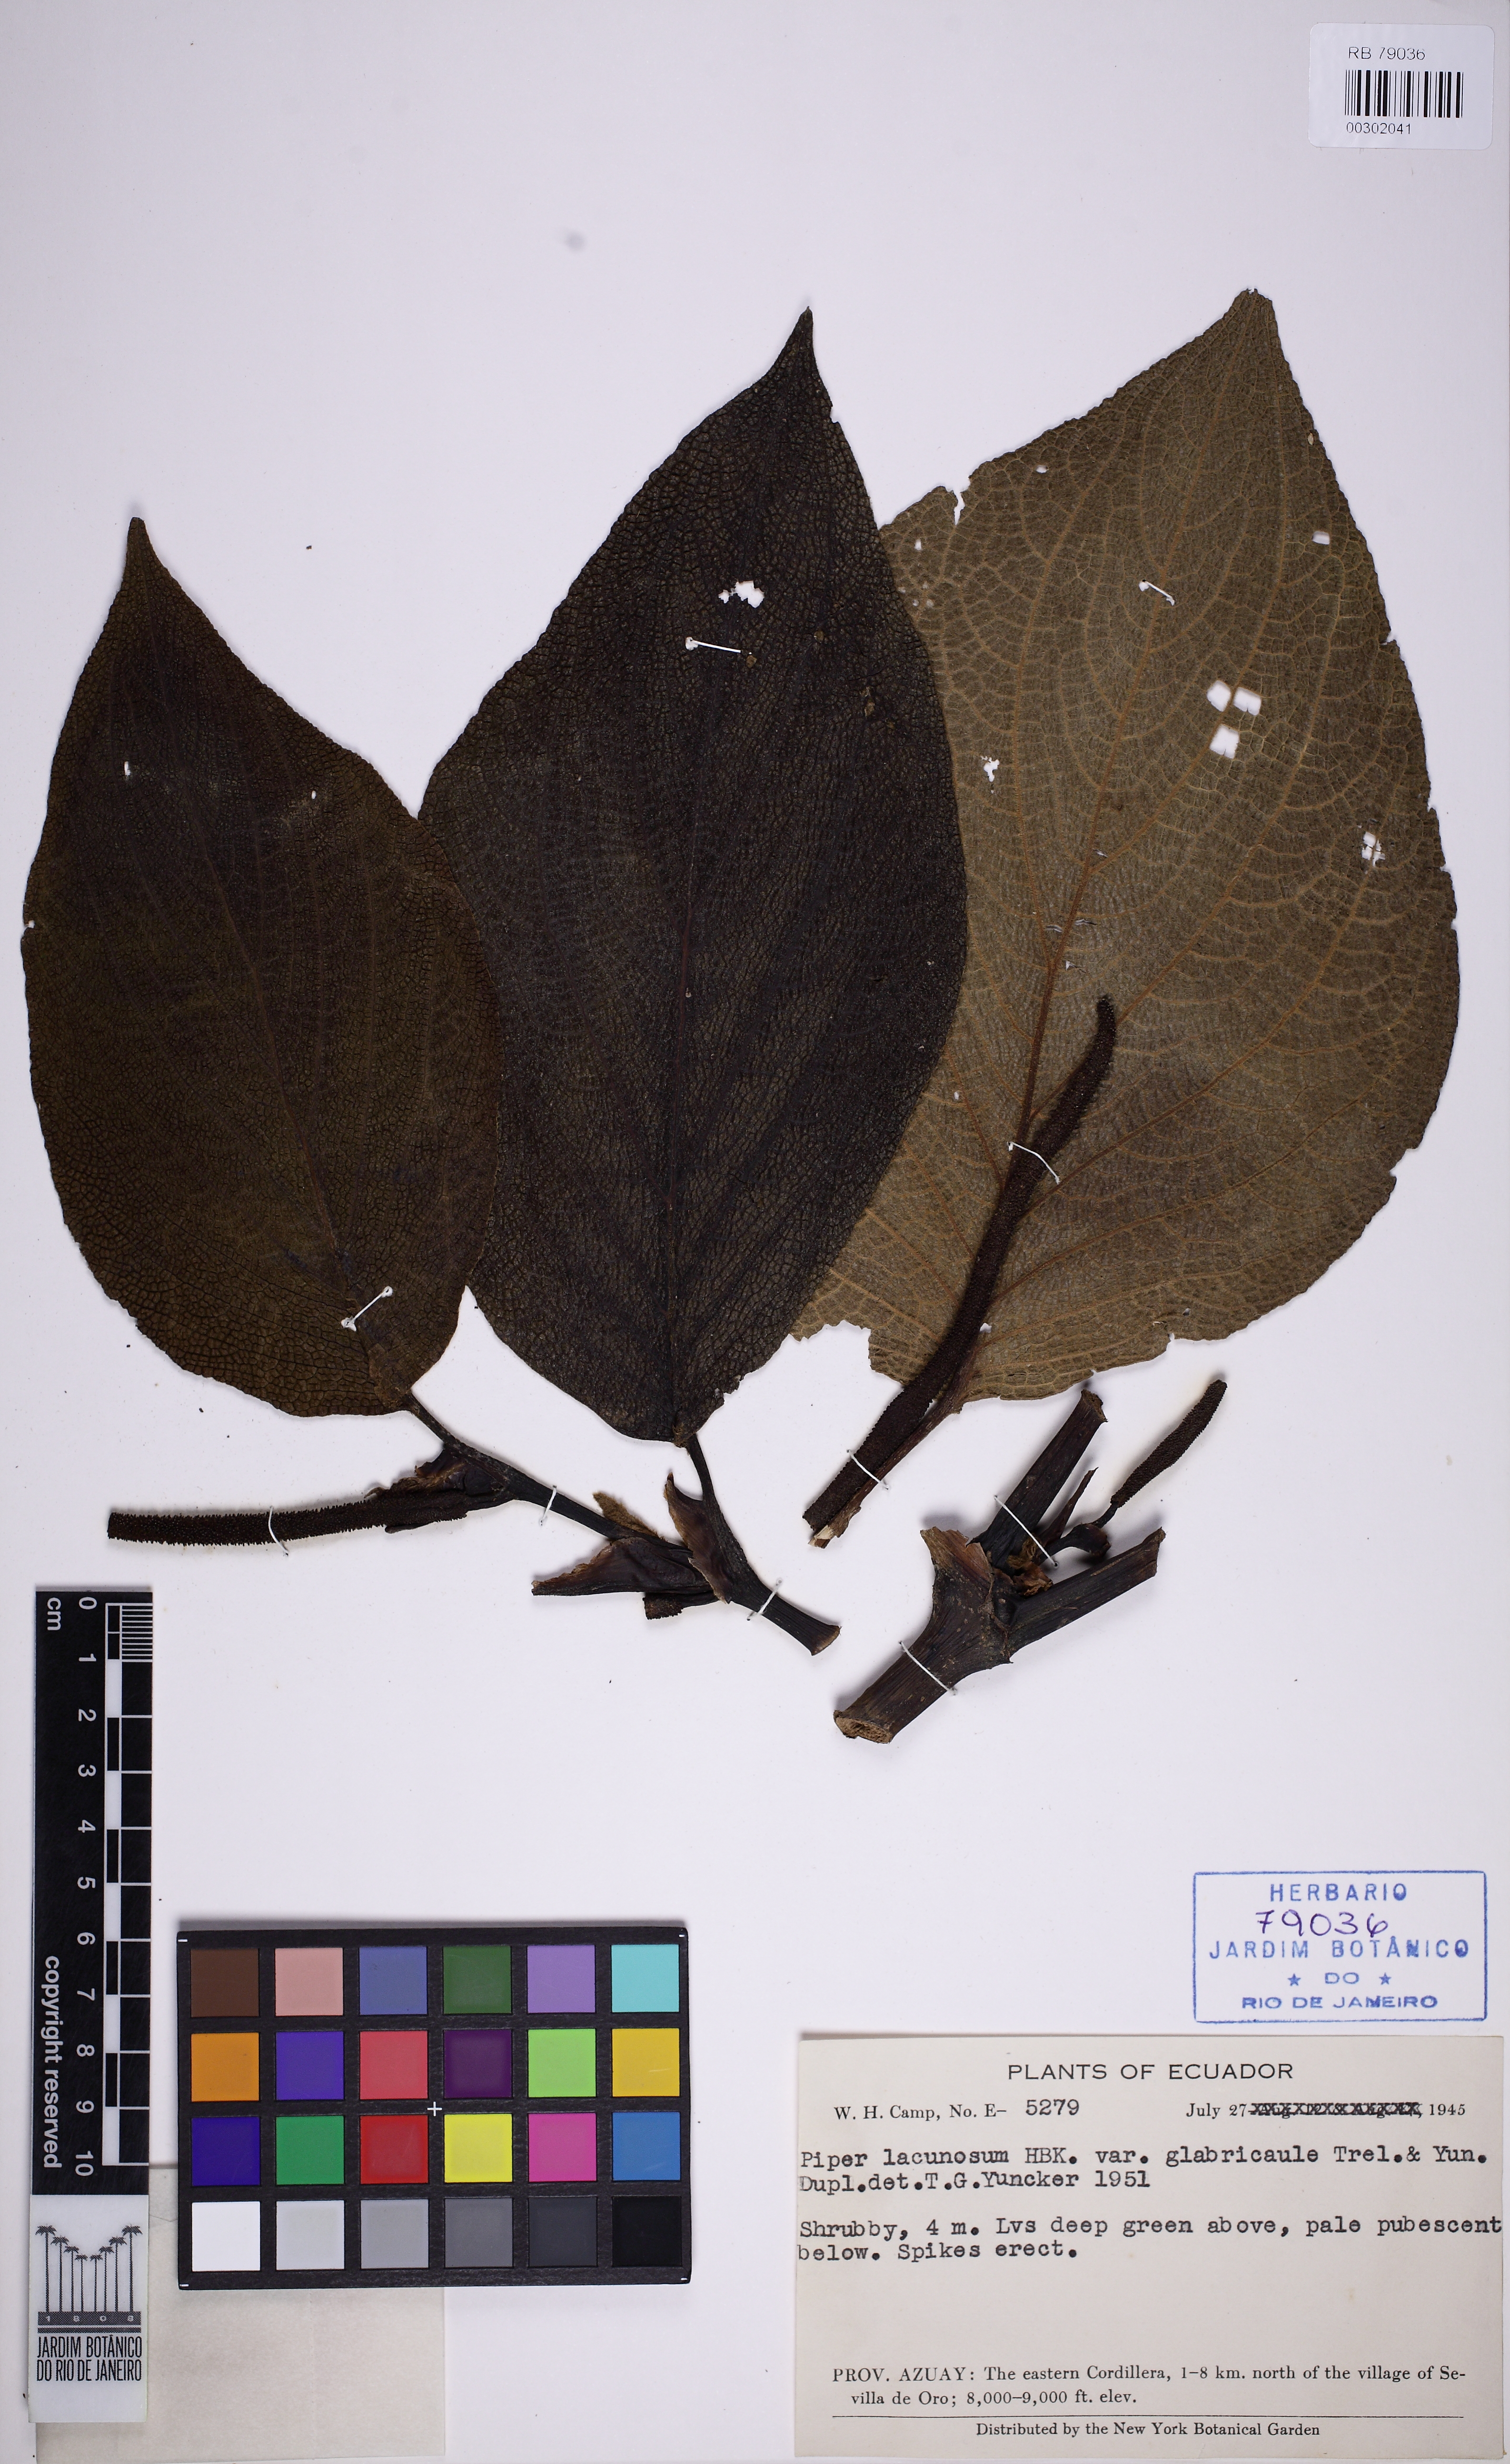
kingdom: Plantae
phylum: Tracheophyta
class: Magnoliopsida
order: Piperales
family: Piperaceae
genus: Peperomia
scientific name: Peperomia
